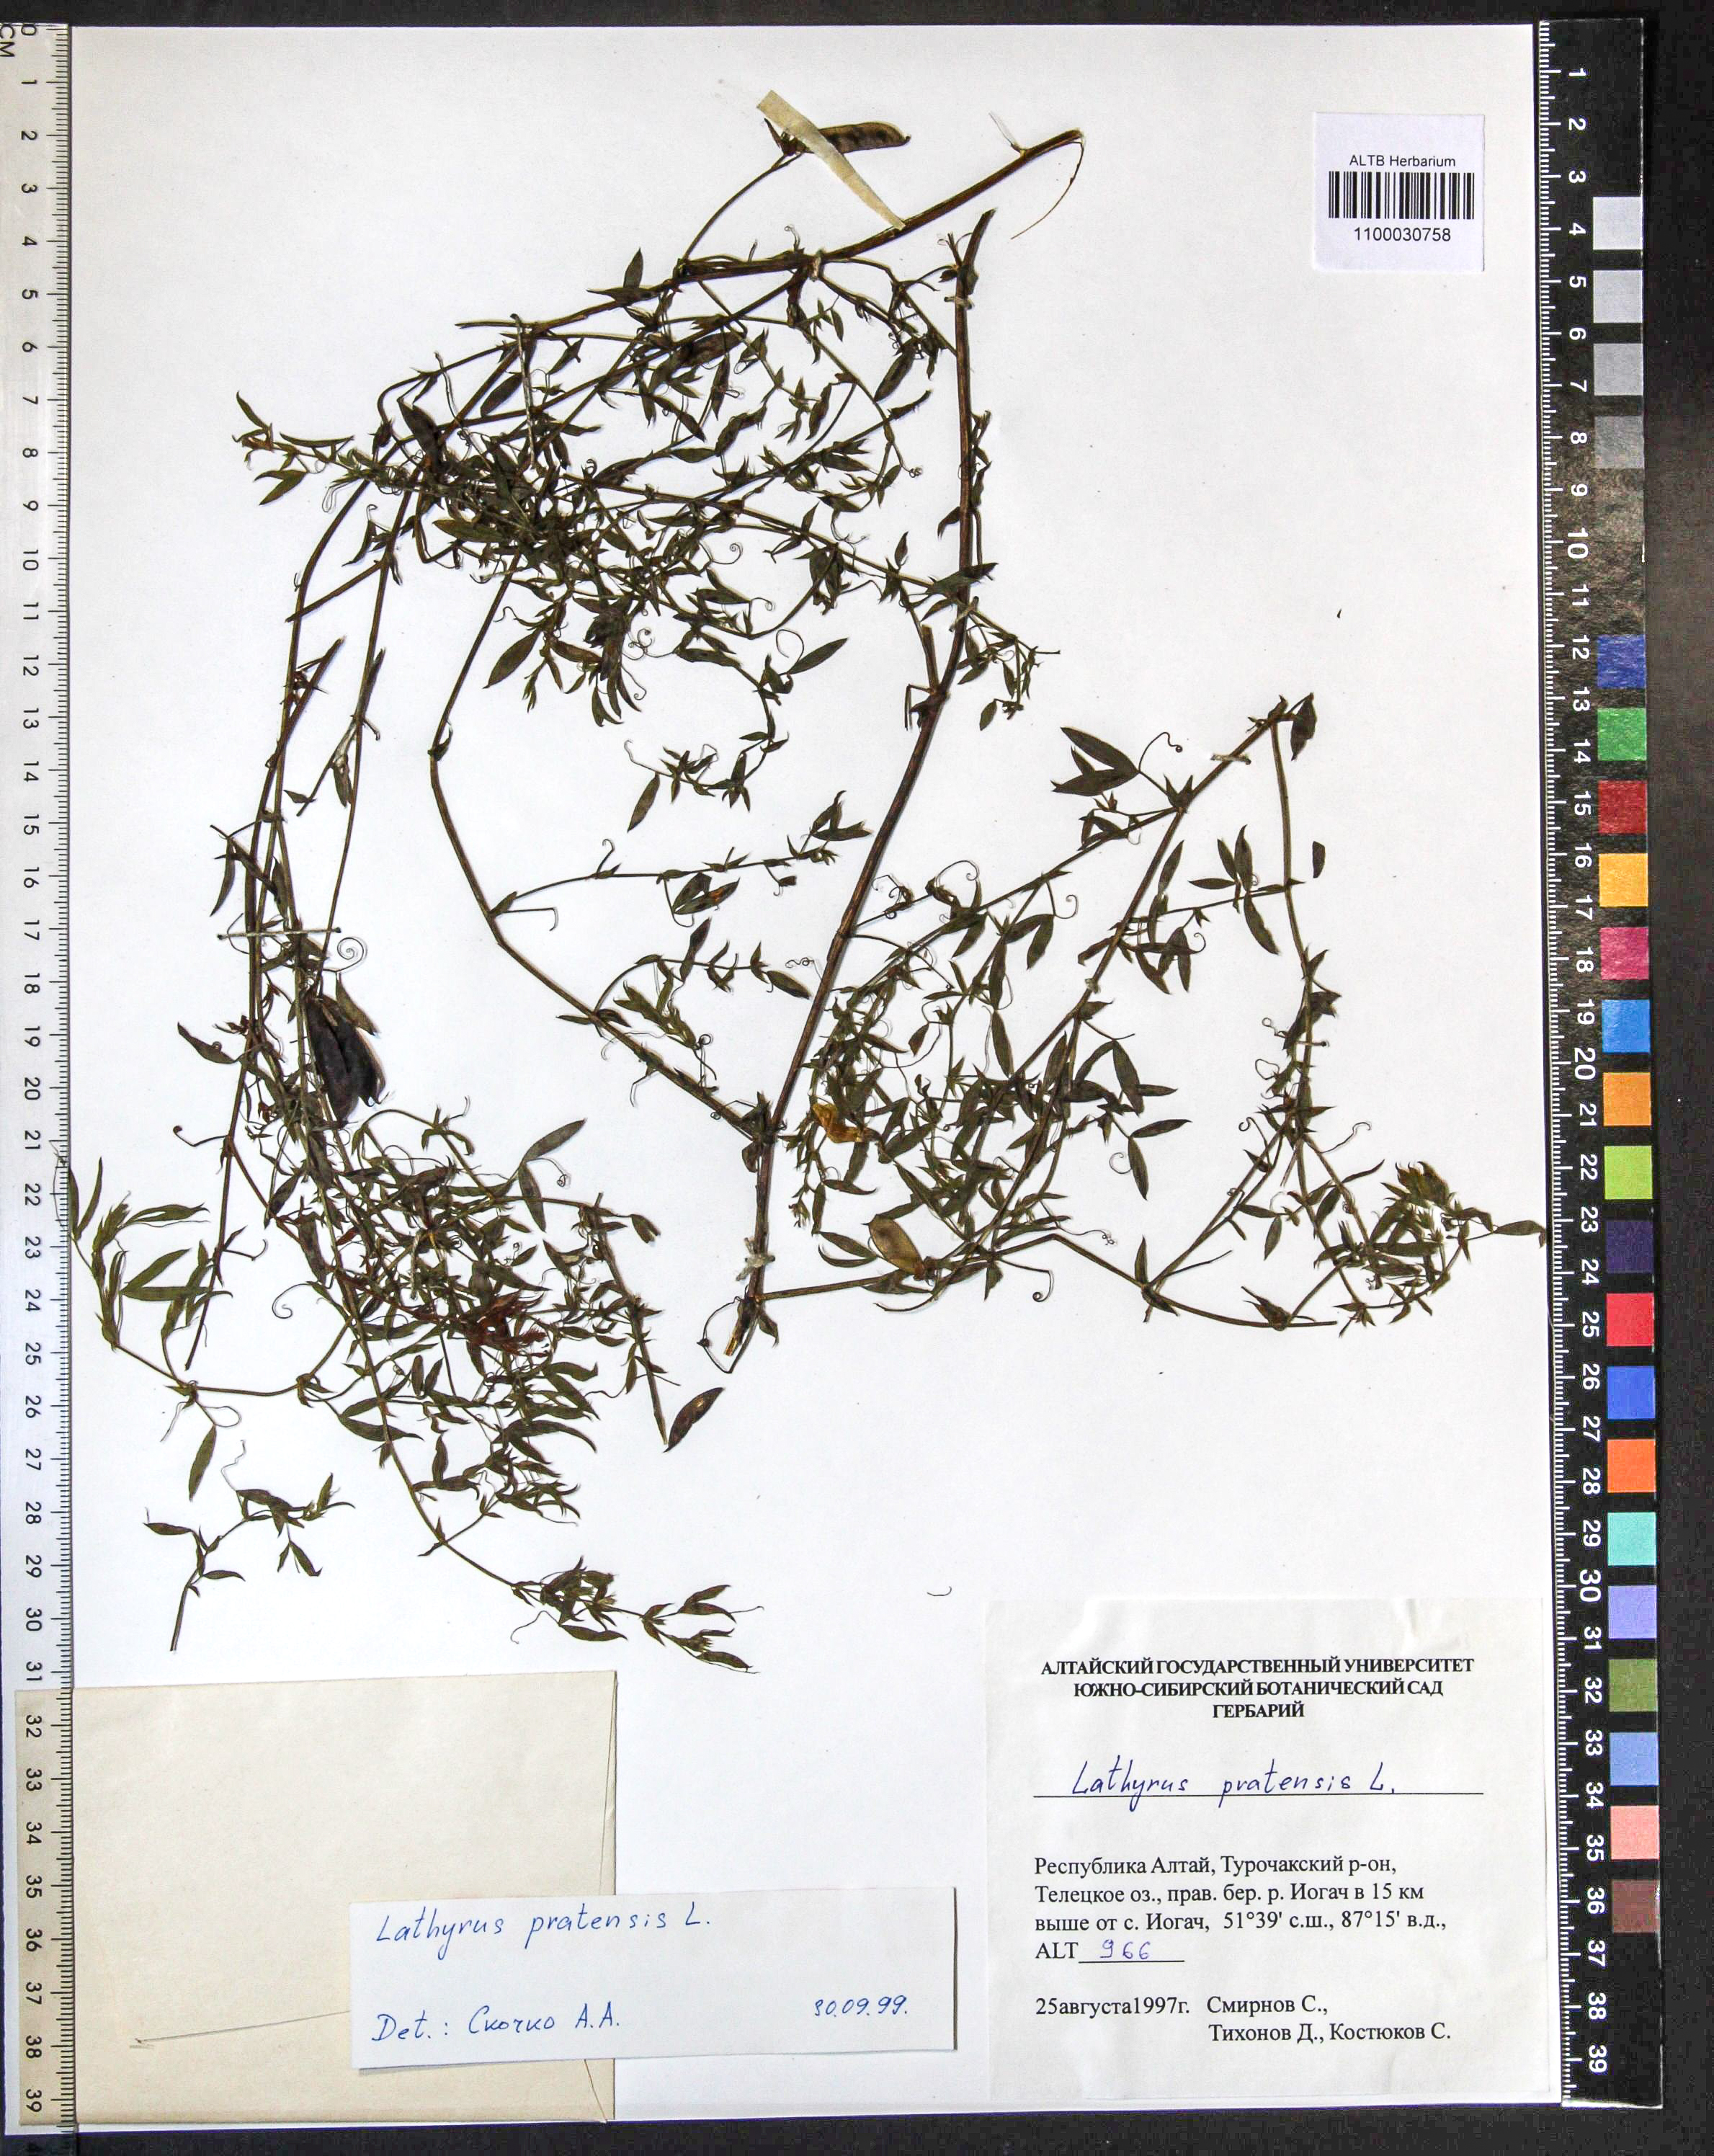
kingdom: Plantae
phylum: Tracheophyta
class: Magnoliopsida
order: Fabales
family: Fabaceae
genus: Lathyrus
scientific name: Lathyrus pratensis
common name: Meadow vetchling
